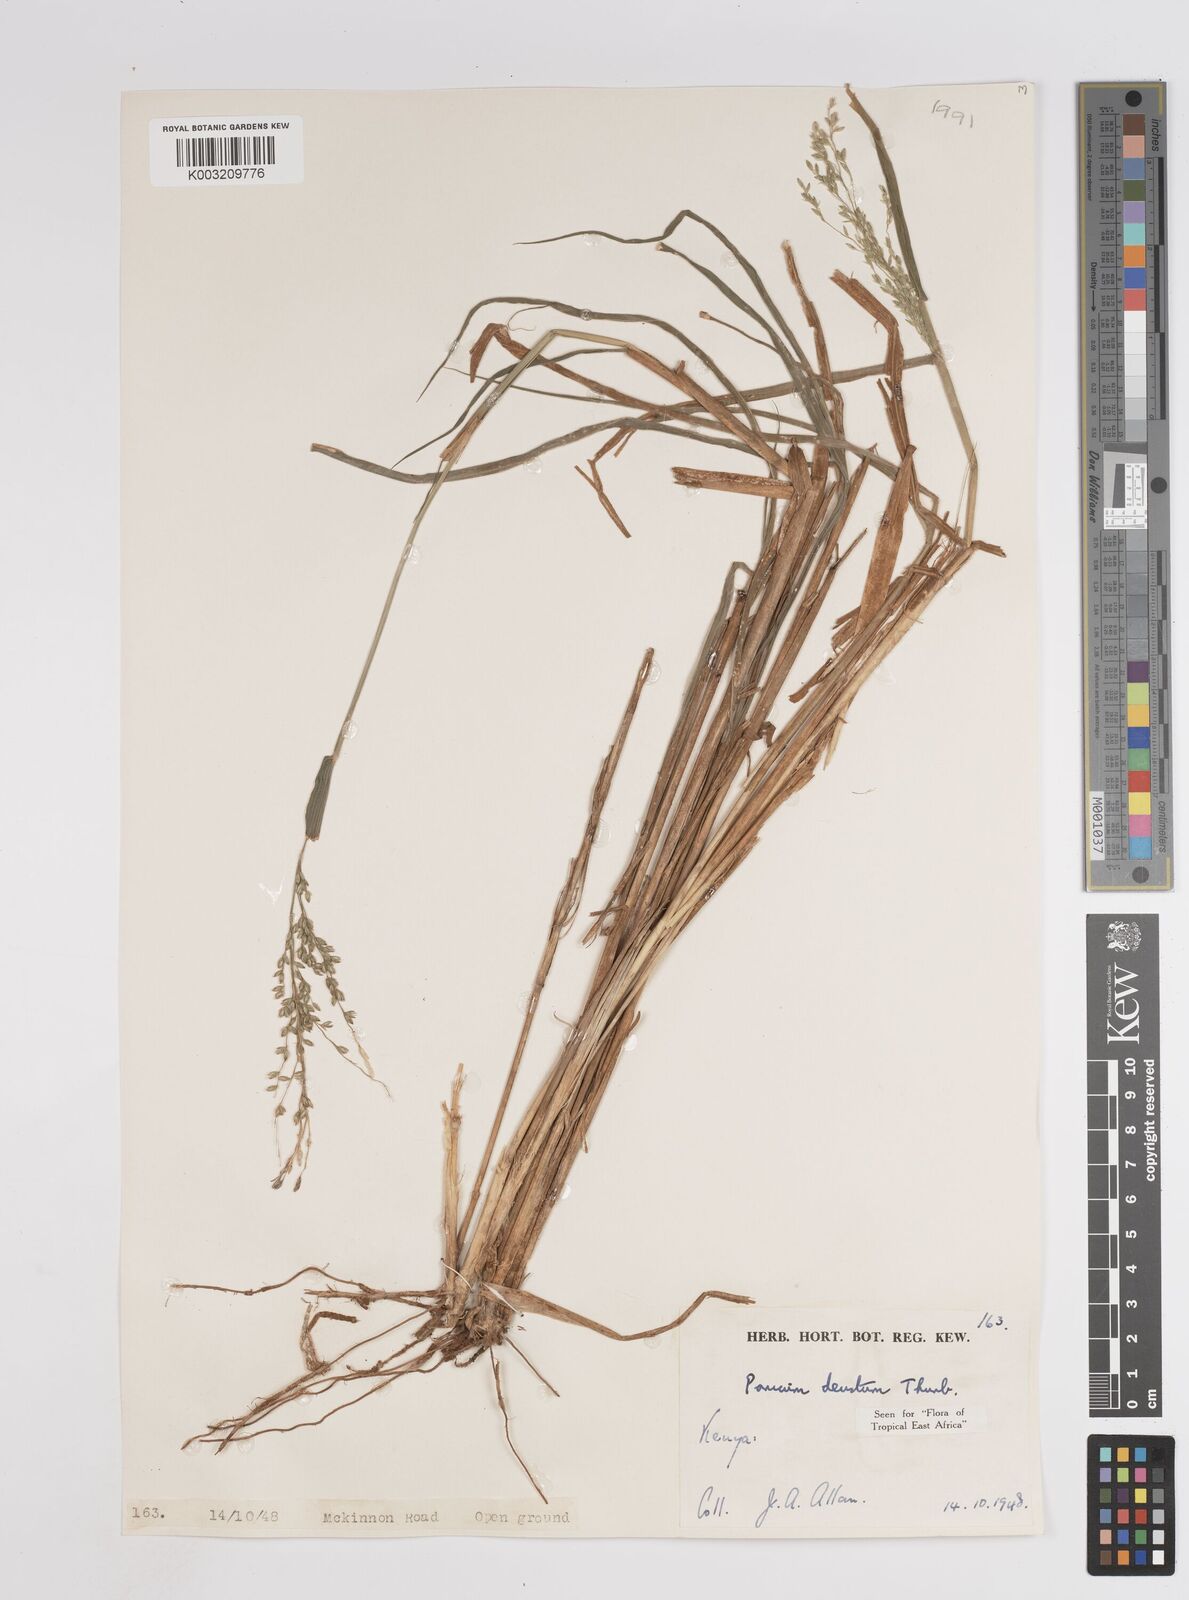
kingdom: Plantae
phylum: Tracheophyta
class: Liliopsida
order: Poales
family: Poaceae
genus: Panicum
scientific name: Panicum
